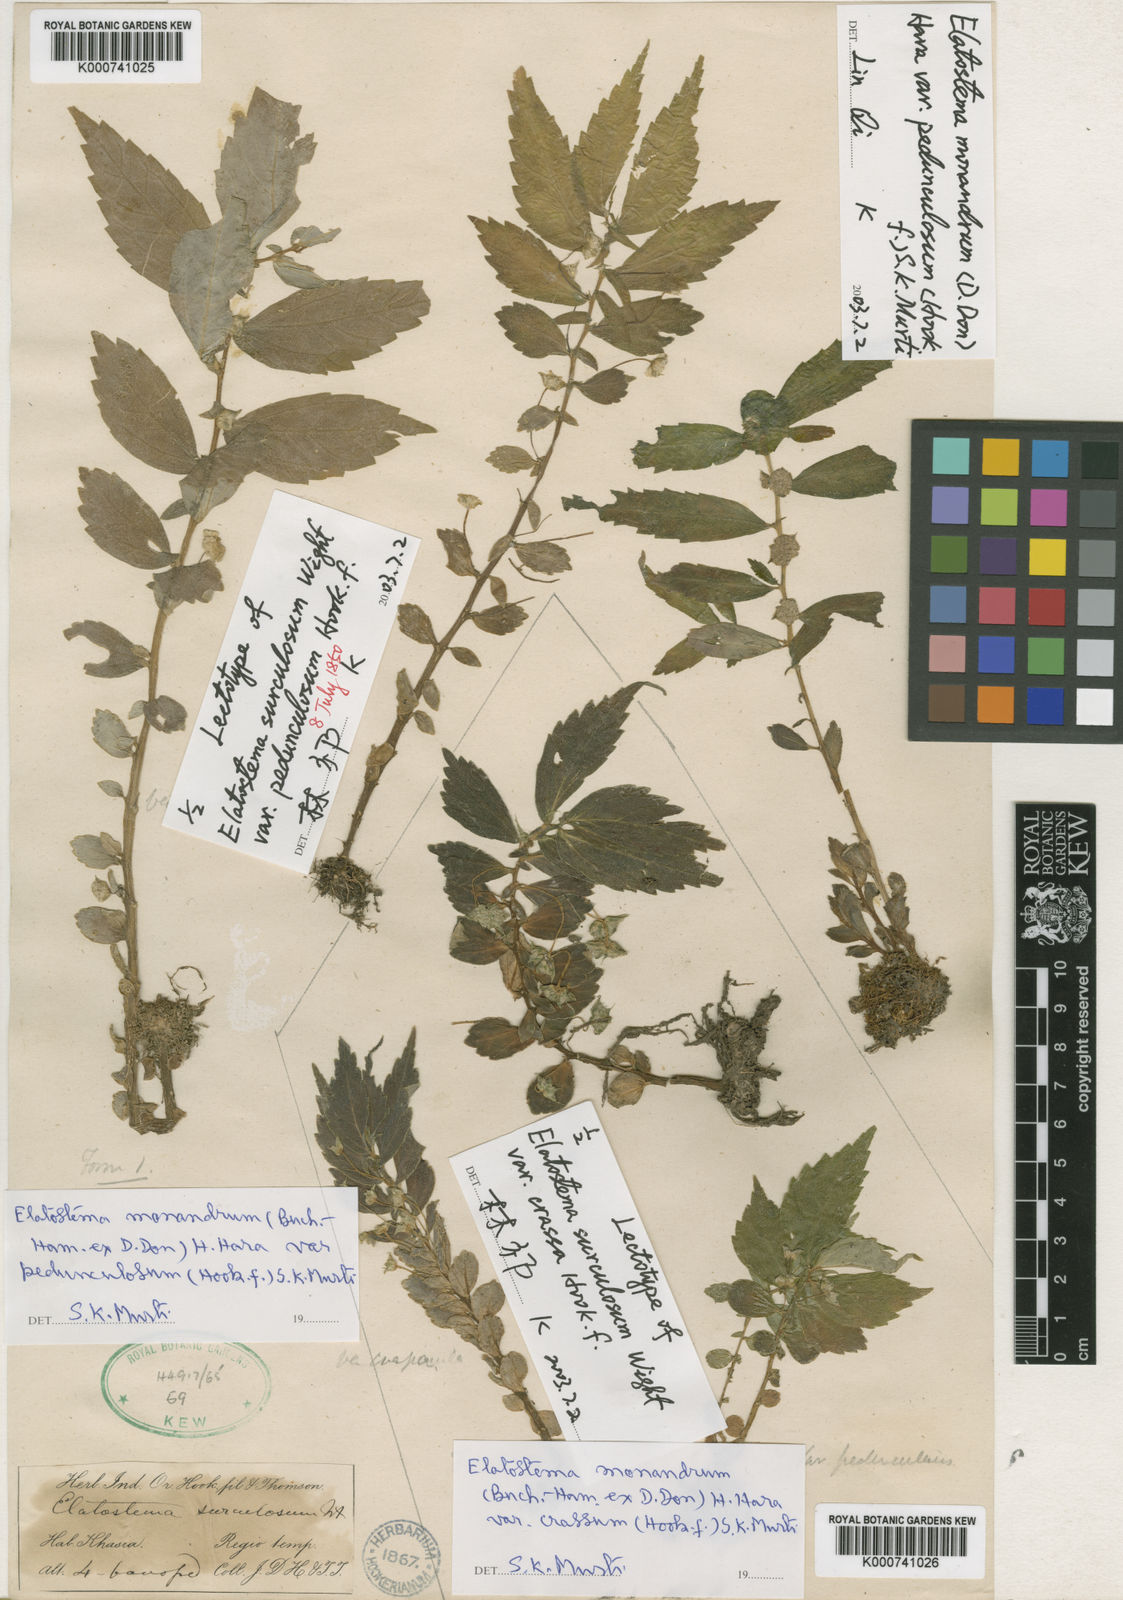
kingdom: Plantae
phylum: Tracheophyta
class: Magnoliopsida
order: Rosales
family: Urticaceae
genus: Elatostema
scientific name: Elatostema monandrum
